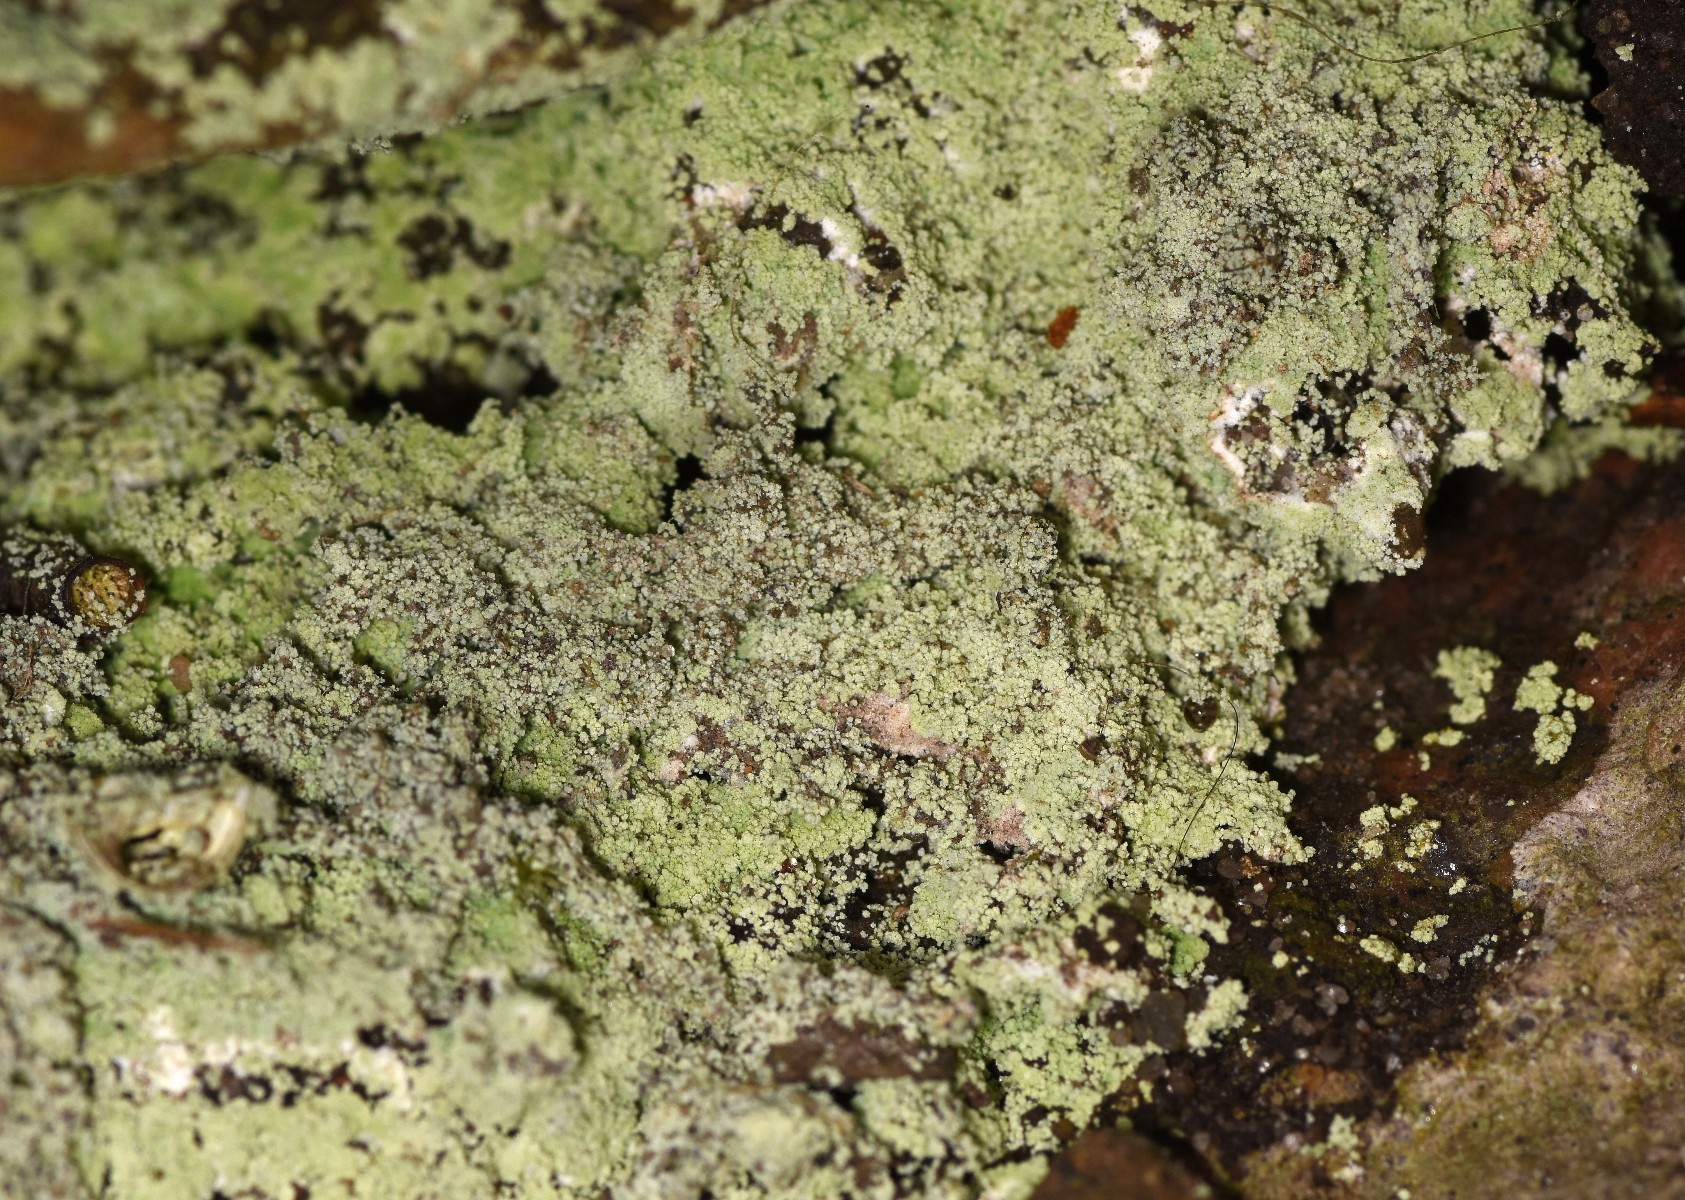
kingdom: Fungi
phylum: Ascomycota
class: Lecanoromycetes
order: Lecanorales
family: Stereocaulaceae
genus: Lepraria
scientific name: Lepraria lobificans
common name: grøn støvlav
